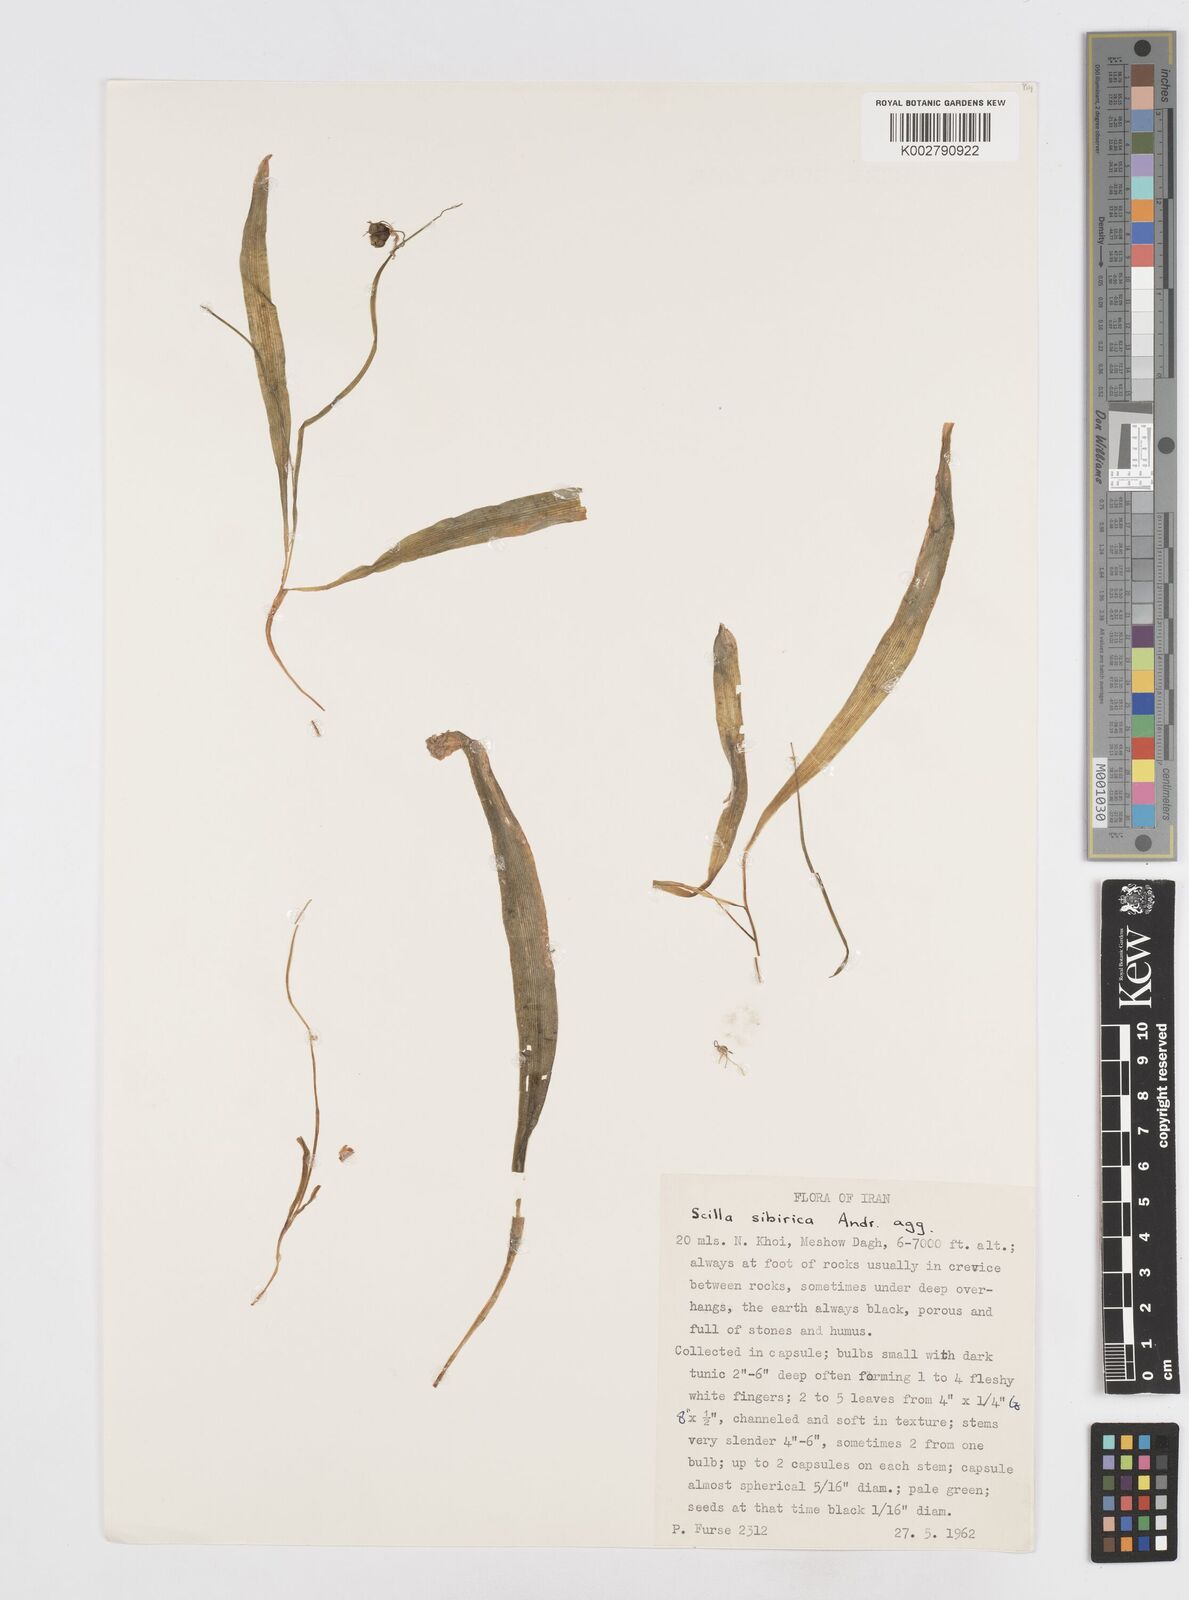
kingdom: Plantae
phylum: Tracheophyta
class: Liliopsida
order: Asparagales
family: Asparagaceae
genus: Scilla
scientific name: Scilla mischtschenkoana
